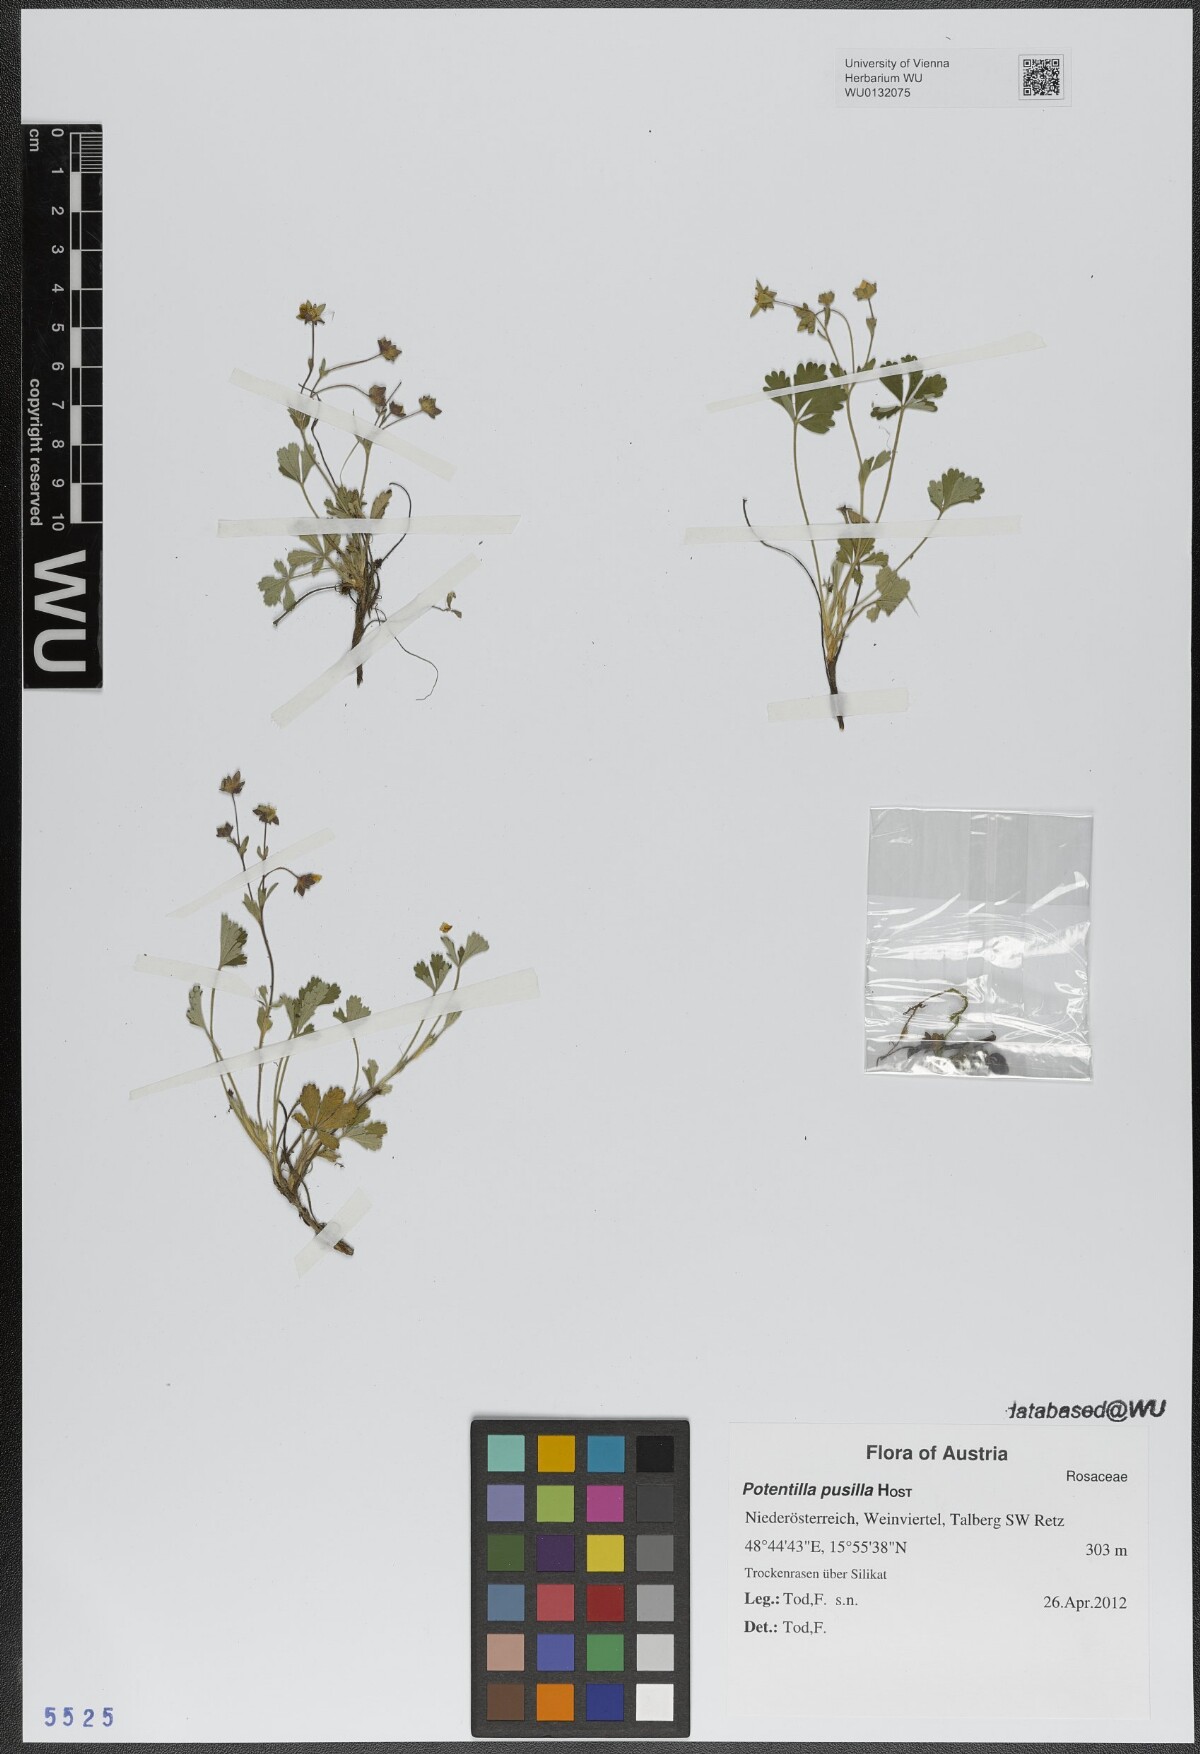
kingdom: Plantae
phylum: Tracheophyta
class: Magnoliopsida
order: Rosales
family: Rosaceae
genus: Potentilla
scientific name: Potentilla pusilla
